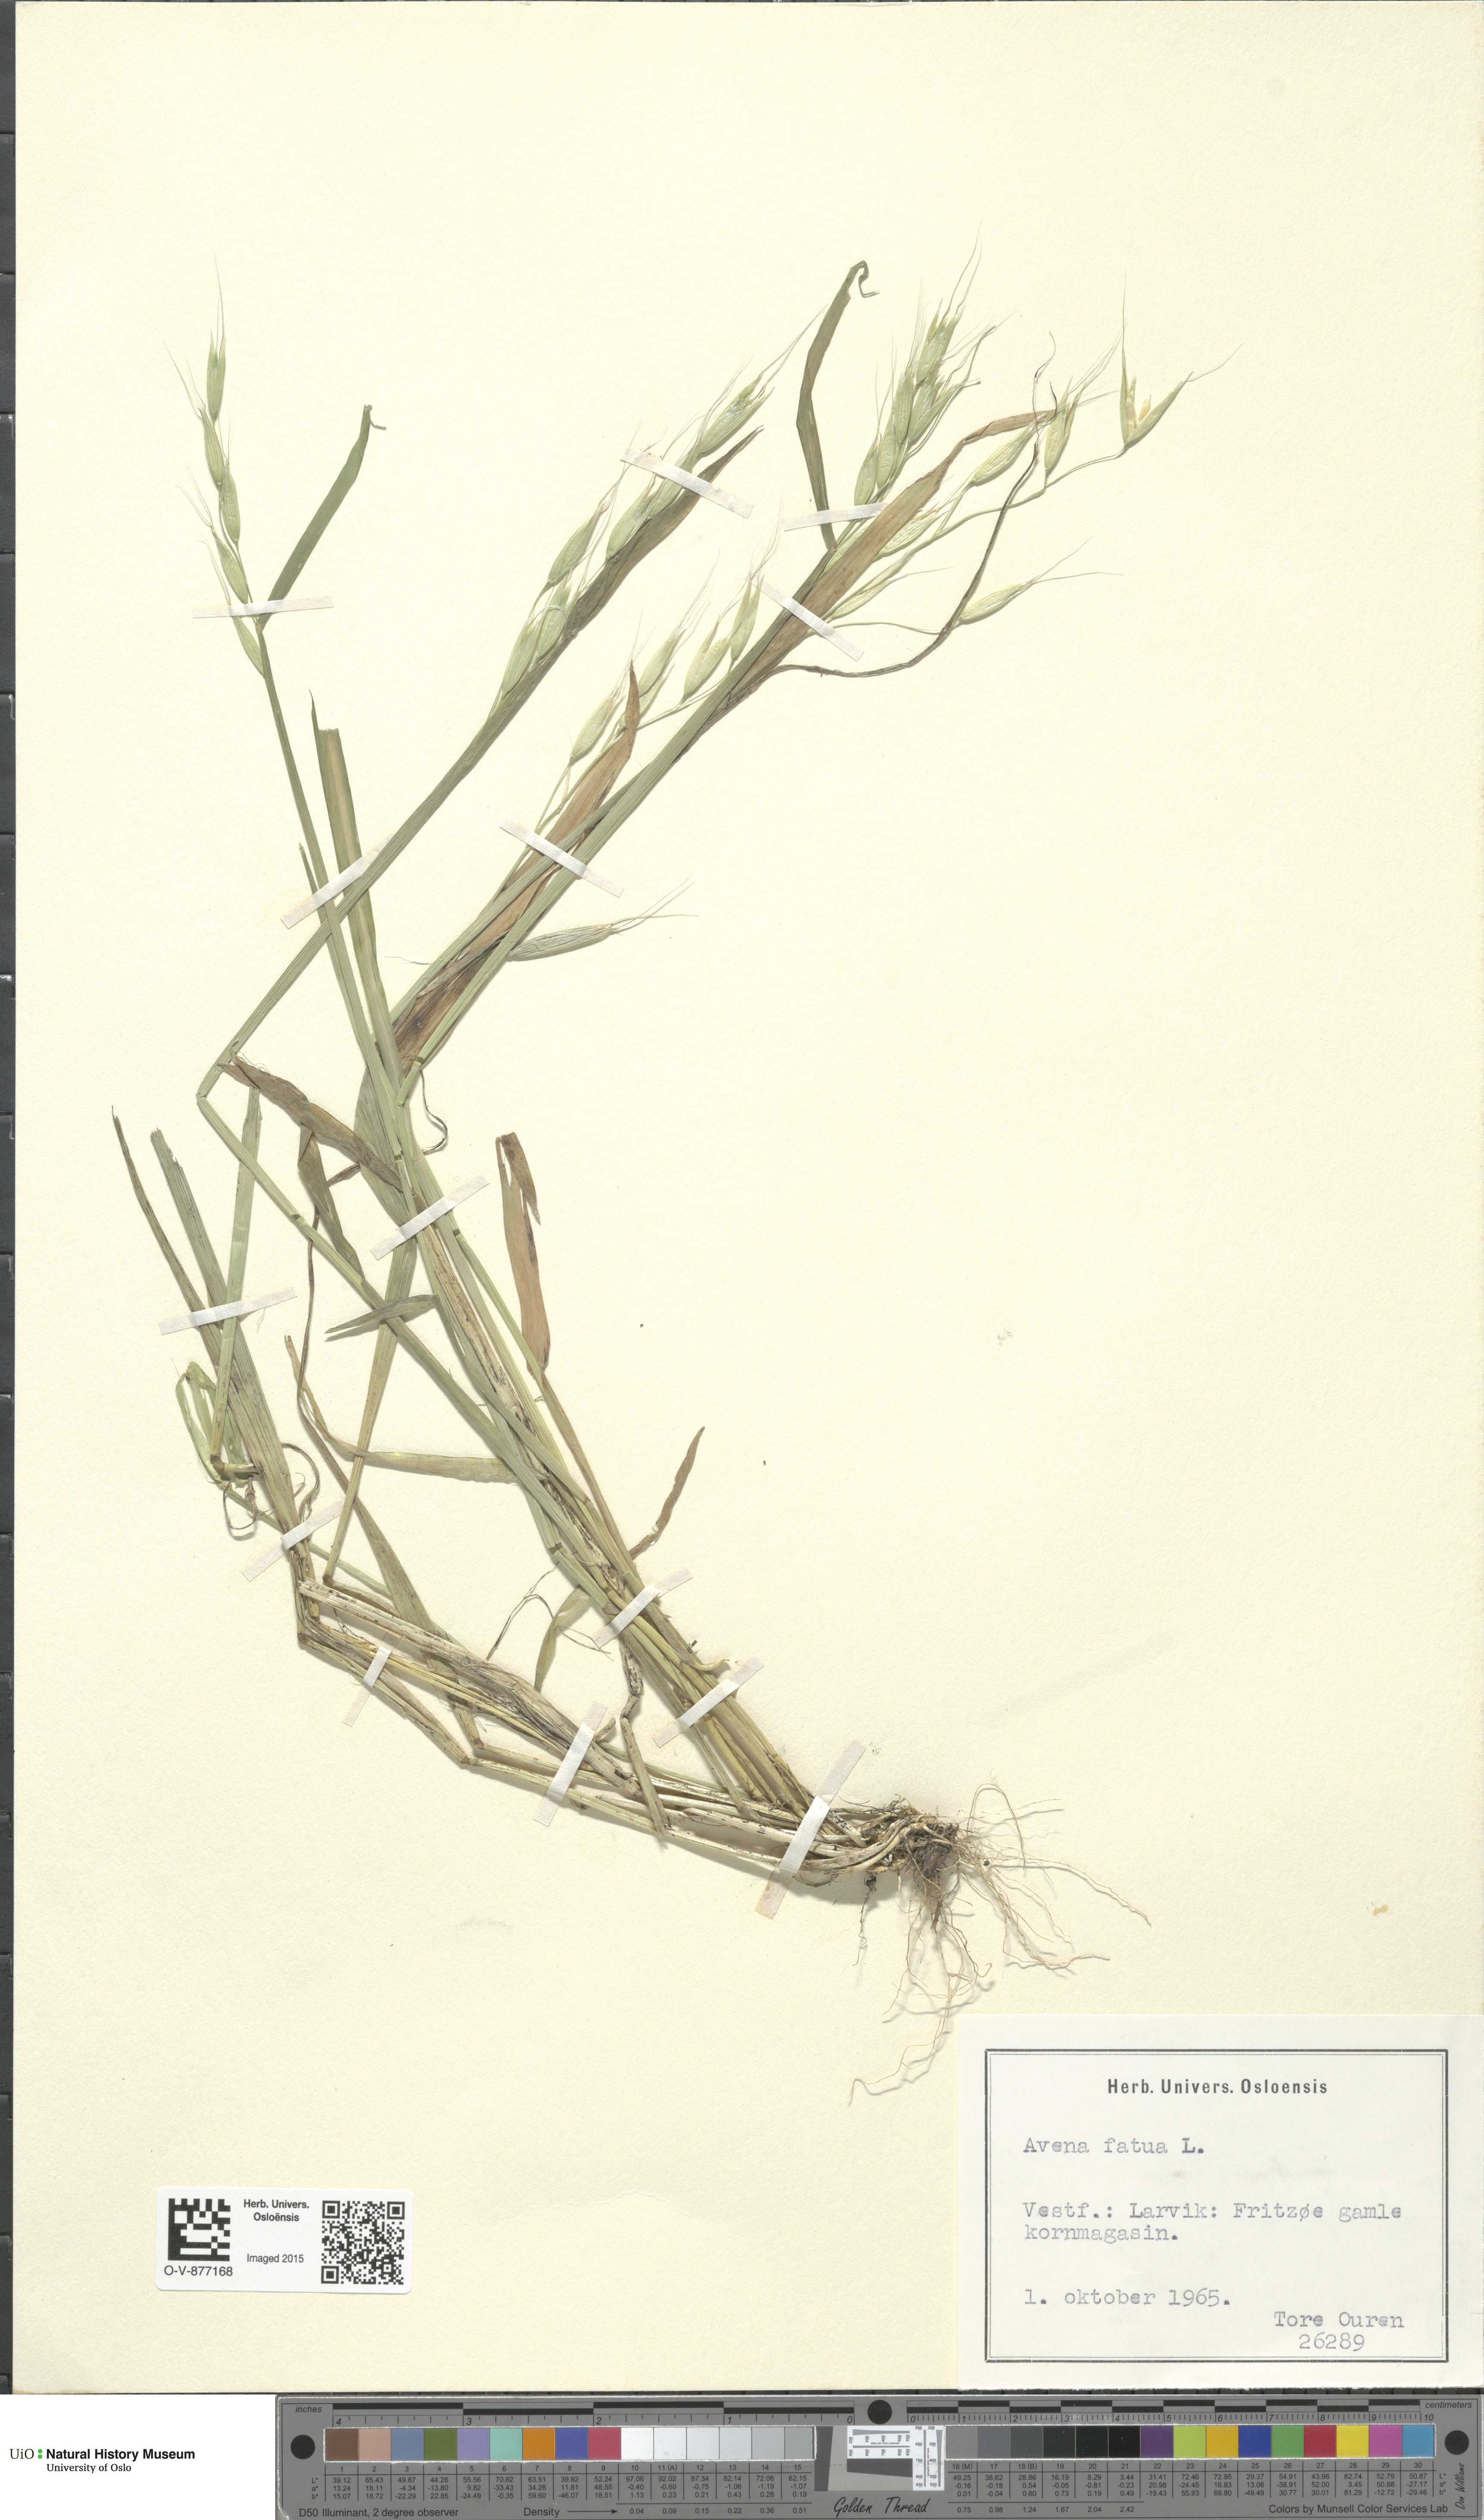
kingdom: Plantae
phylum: Tracheophyta
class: Liliopsida
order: Poales
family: Poaceae
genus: Avena
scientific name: Avena fatua
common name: Wild oat
